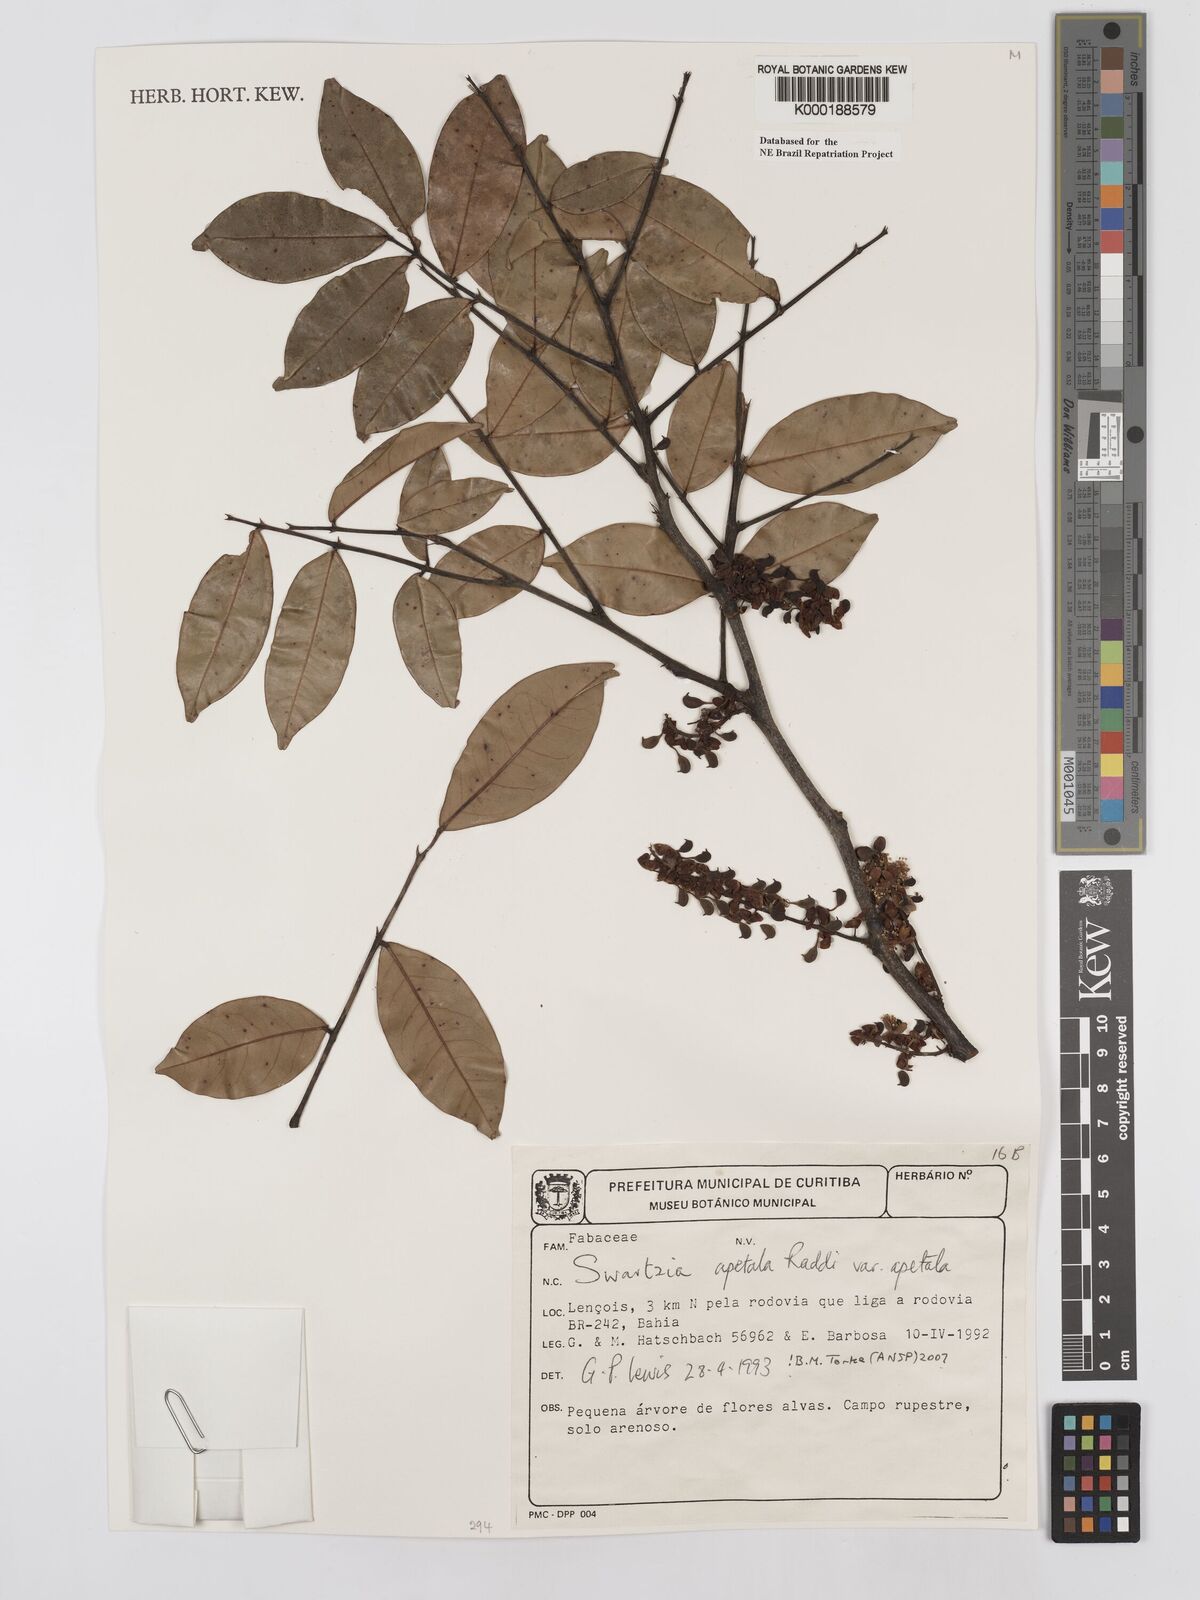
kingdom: Plantae
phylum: Tracheophyta
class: Magnoliopsida
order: Fabales
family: Fabaceae
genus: Swartzia
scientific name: Swartzia apetala
